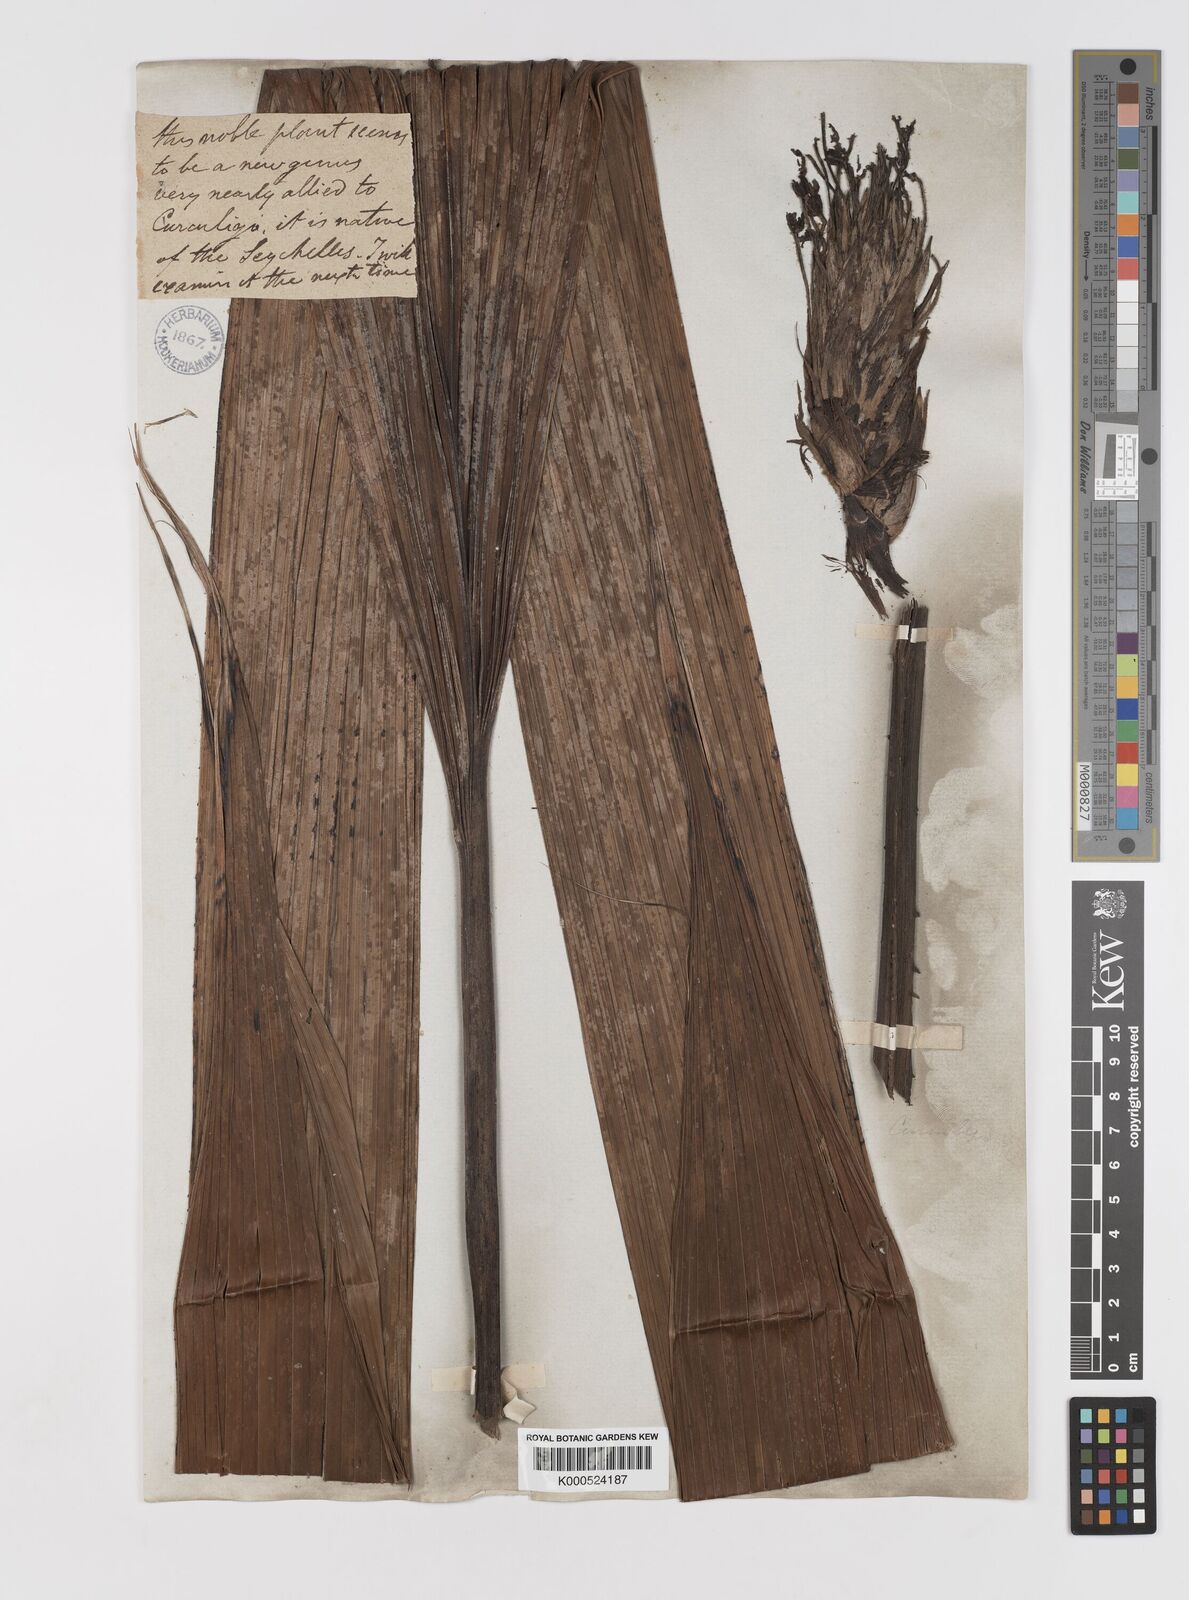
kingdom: Plantae
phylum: Tracheophyta
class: Liliopsida
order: Asparagales
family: Hypoxidaceae
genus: Curculigo
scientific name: Curculigo seychellensis
